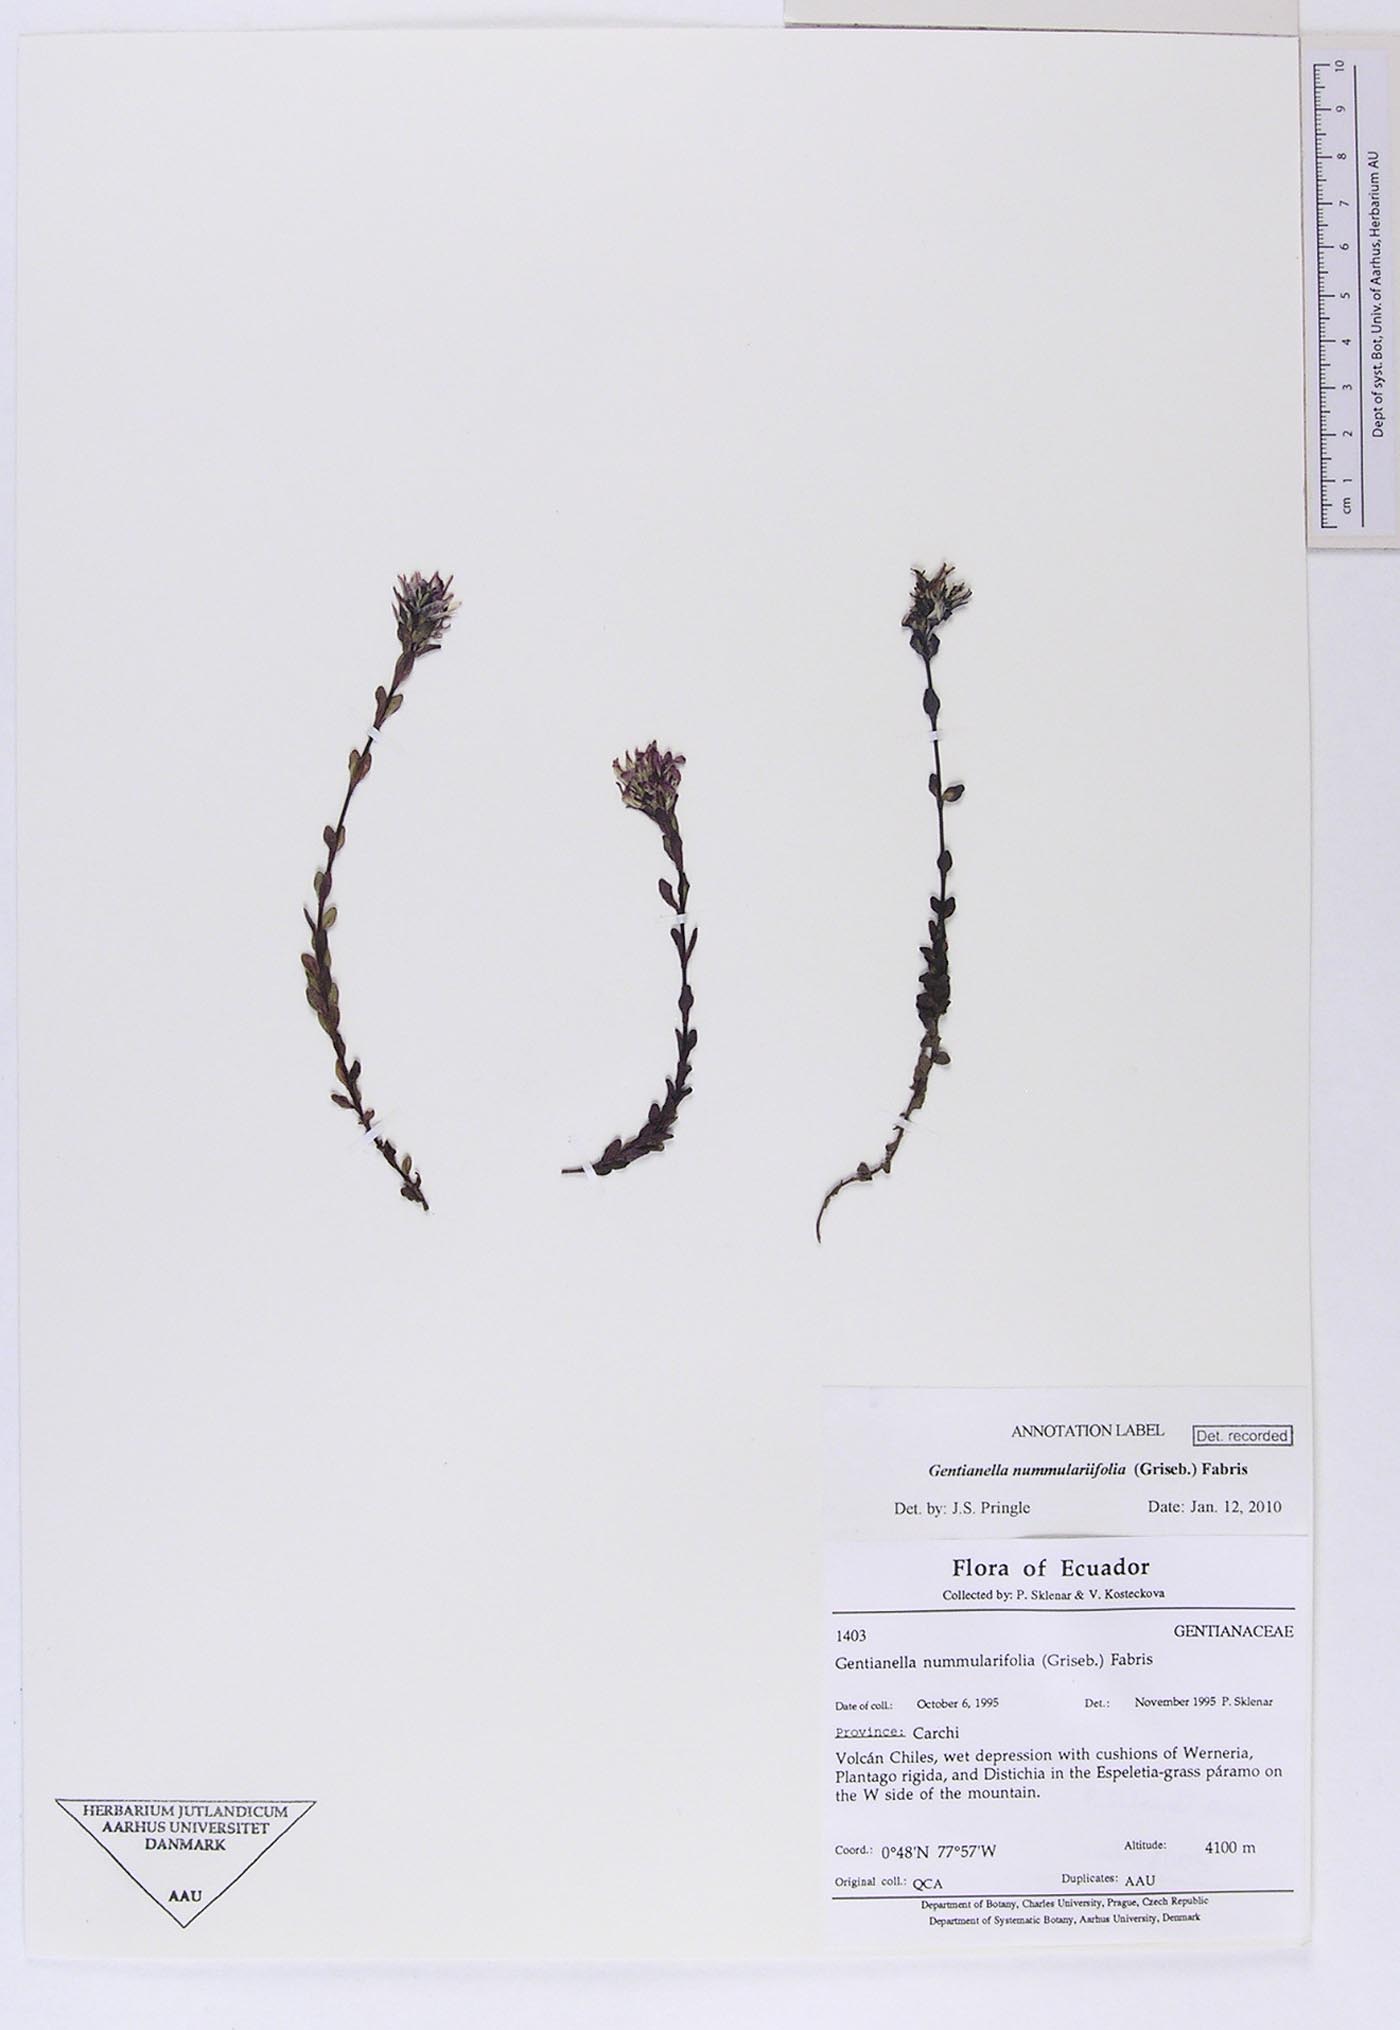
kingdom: Plantae
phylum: Tracheophyta
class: Magnoliopsida
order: Gentianales
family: Gentianaceae
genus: Gentianella
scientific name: Gentianella nummulariifolia
